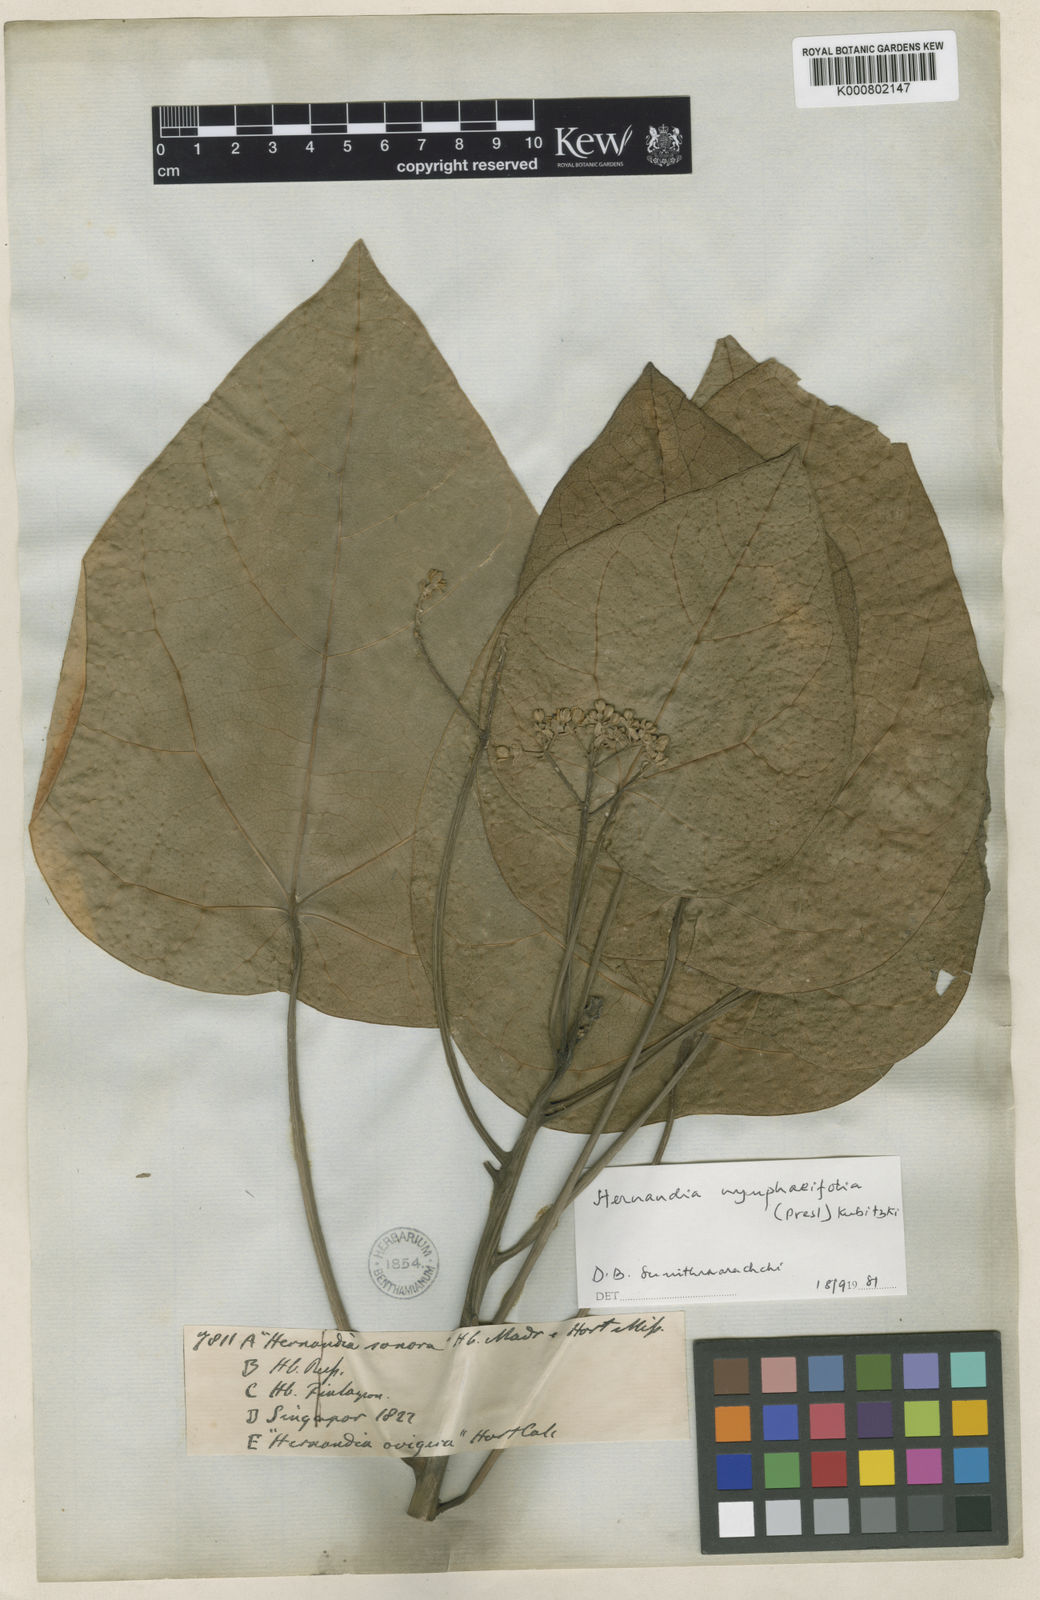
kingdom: Plantae
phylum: Tracheophyta
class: Magnoliopsida
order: Laurales
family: Hernandiaceae
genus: Hernandia
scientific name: Hernandia nymphaeifolia
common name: Sea hearse
